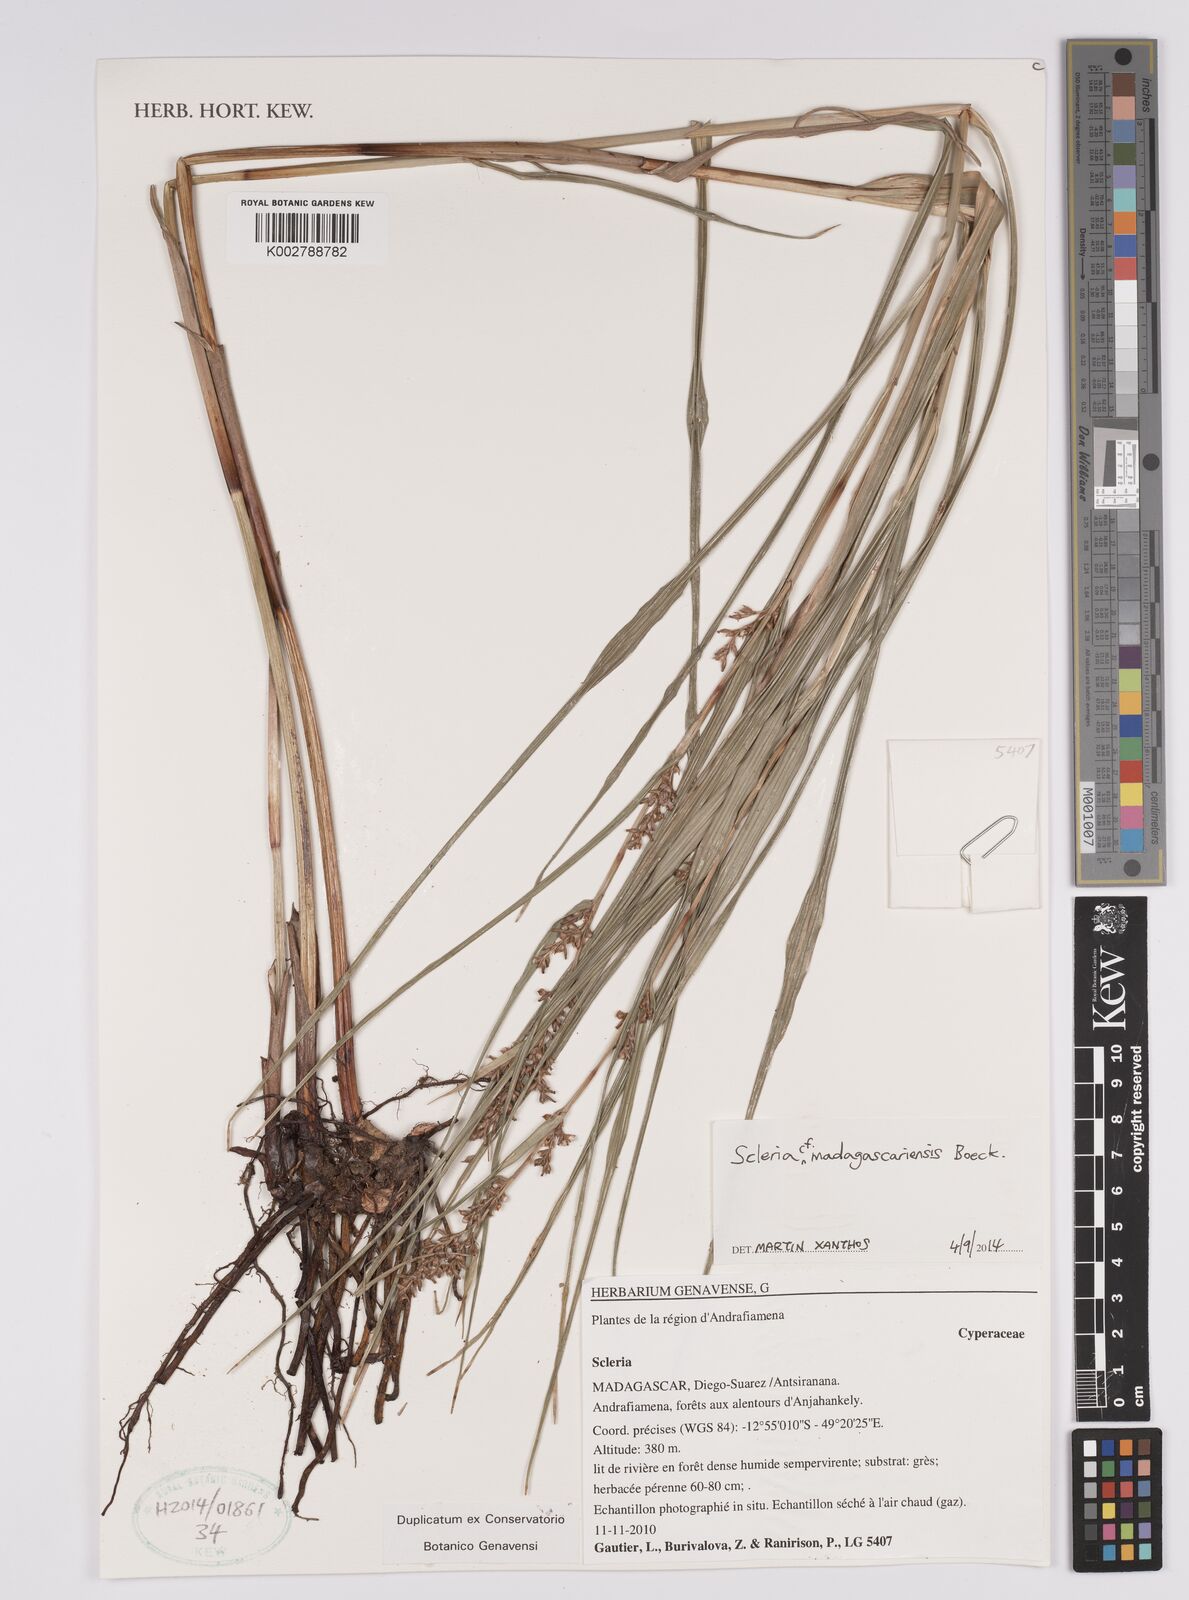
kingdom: Plantae
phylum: Tracheophyta
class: Liliopsida
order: Poales
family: Cyperaceae
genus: Scleria
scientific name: Scleria madagascariensis
